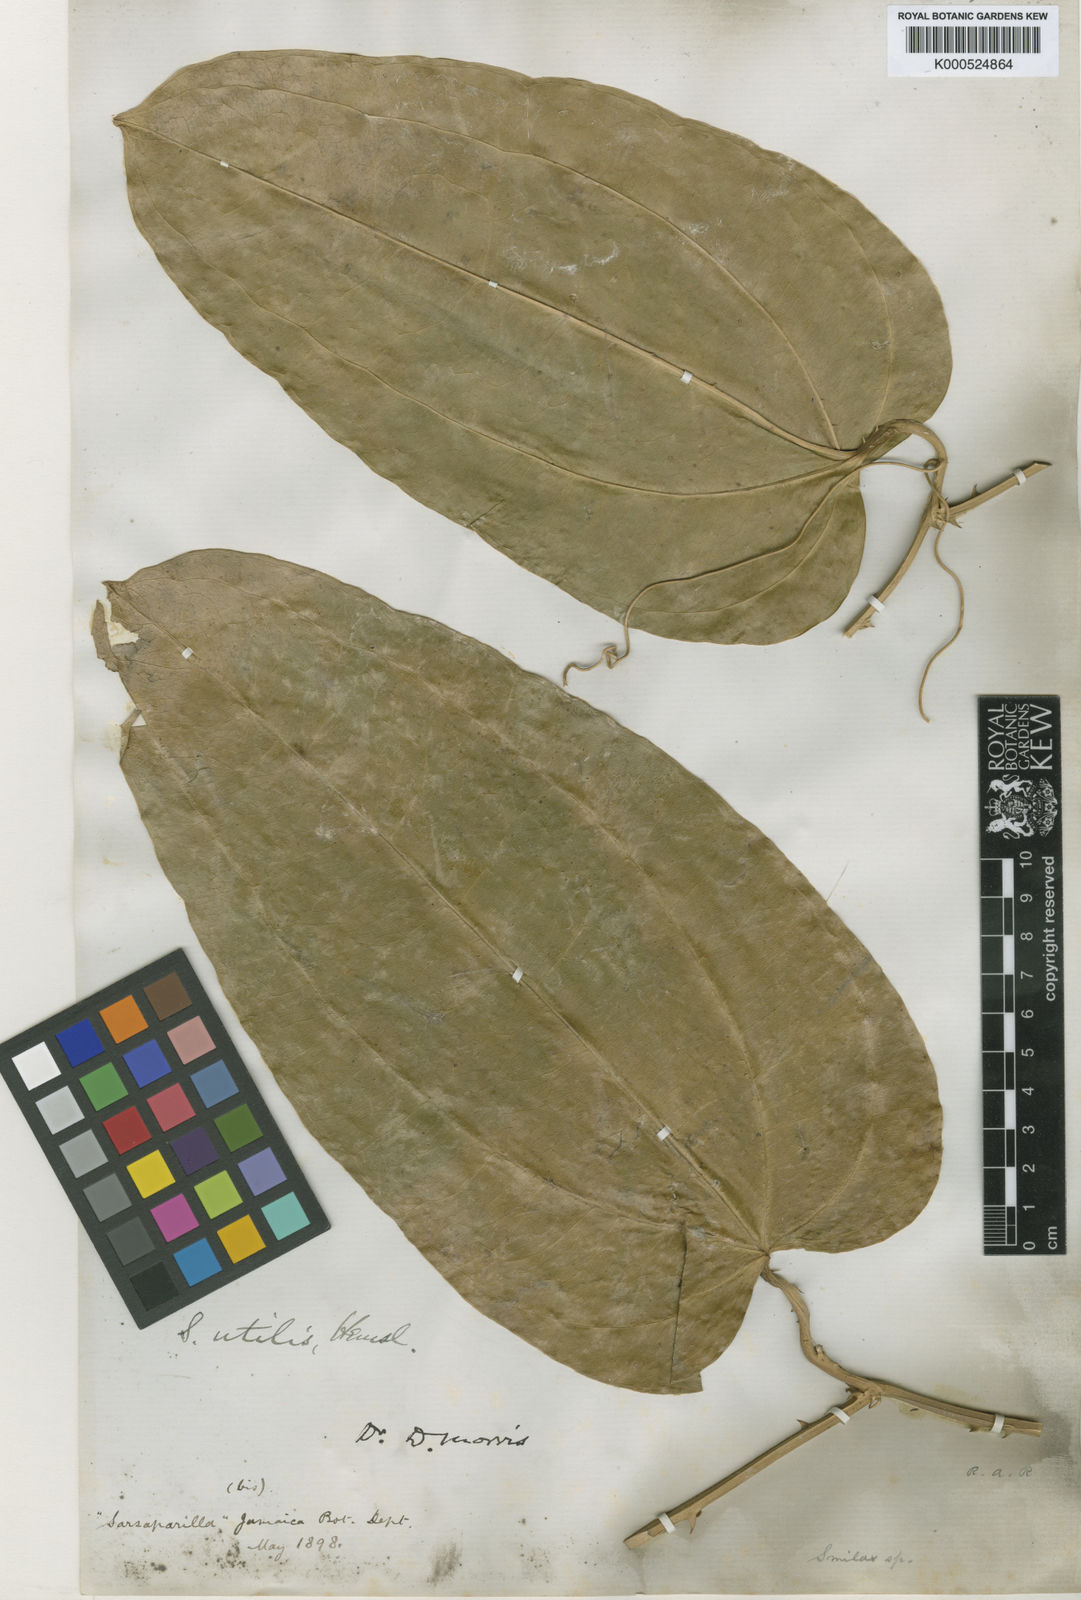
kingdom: Plantae
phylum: Tracheophyta
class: Liliopsida
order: Liliales
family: Smilacaceae
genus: Smilax
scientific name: Smilax ornata
